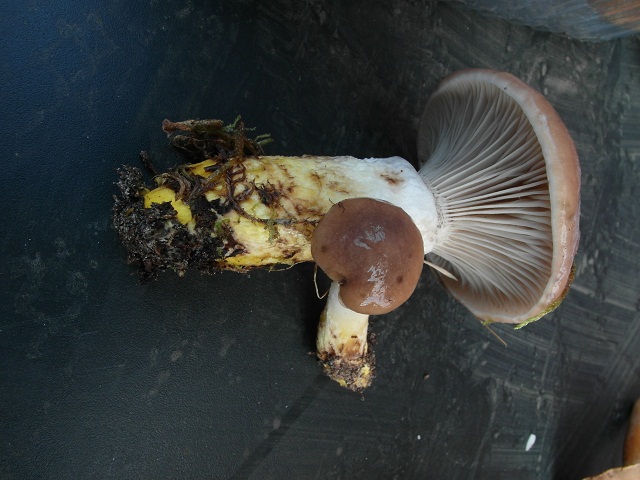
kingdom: Fungi
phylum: Basidiomycota
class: Agaricomycetes
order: Boletales
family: Gomphidiaceae
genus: Gomphidius
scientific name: Gomphidius glutinosus
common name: grå slimslør
